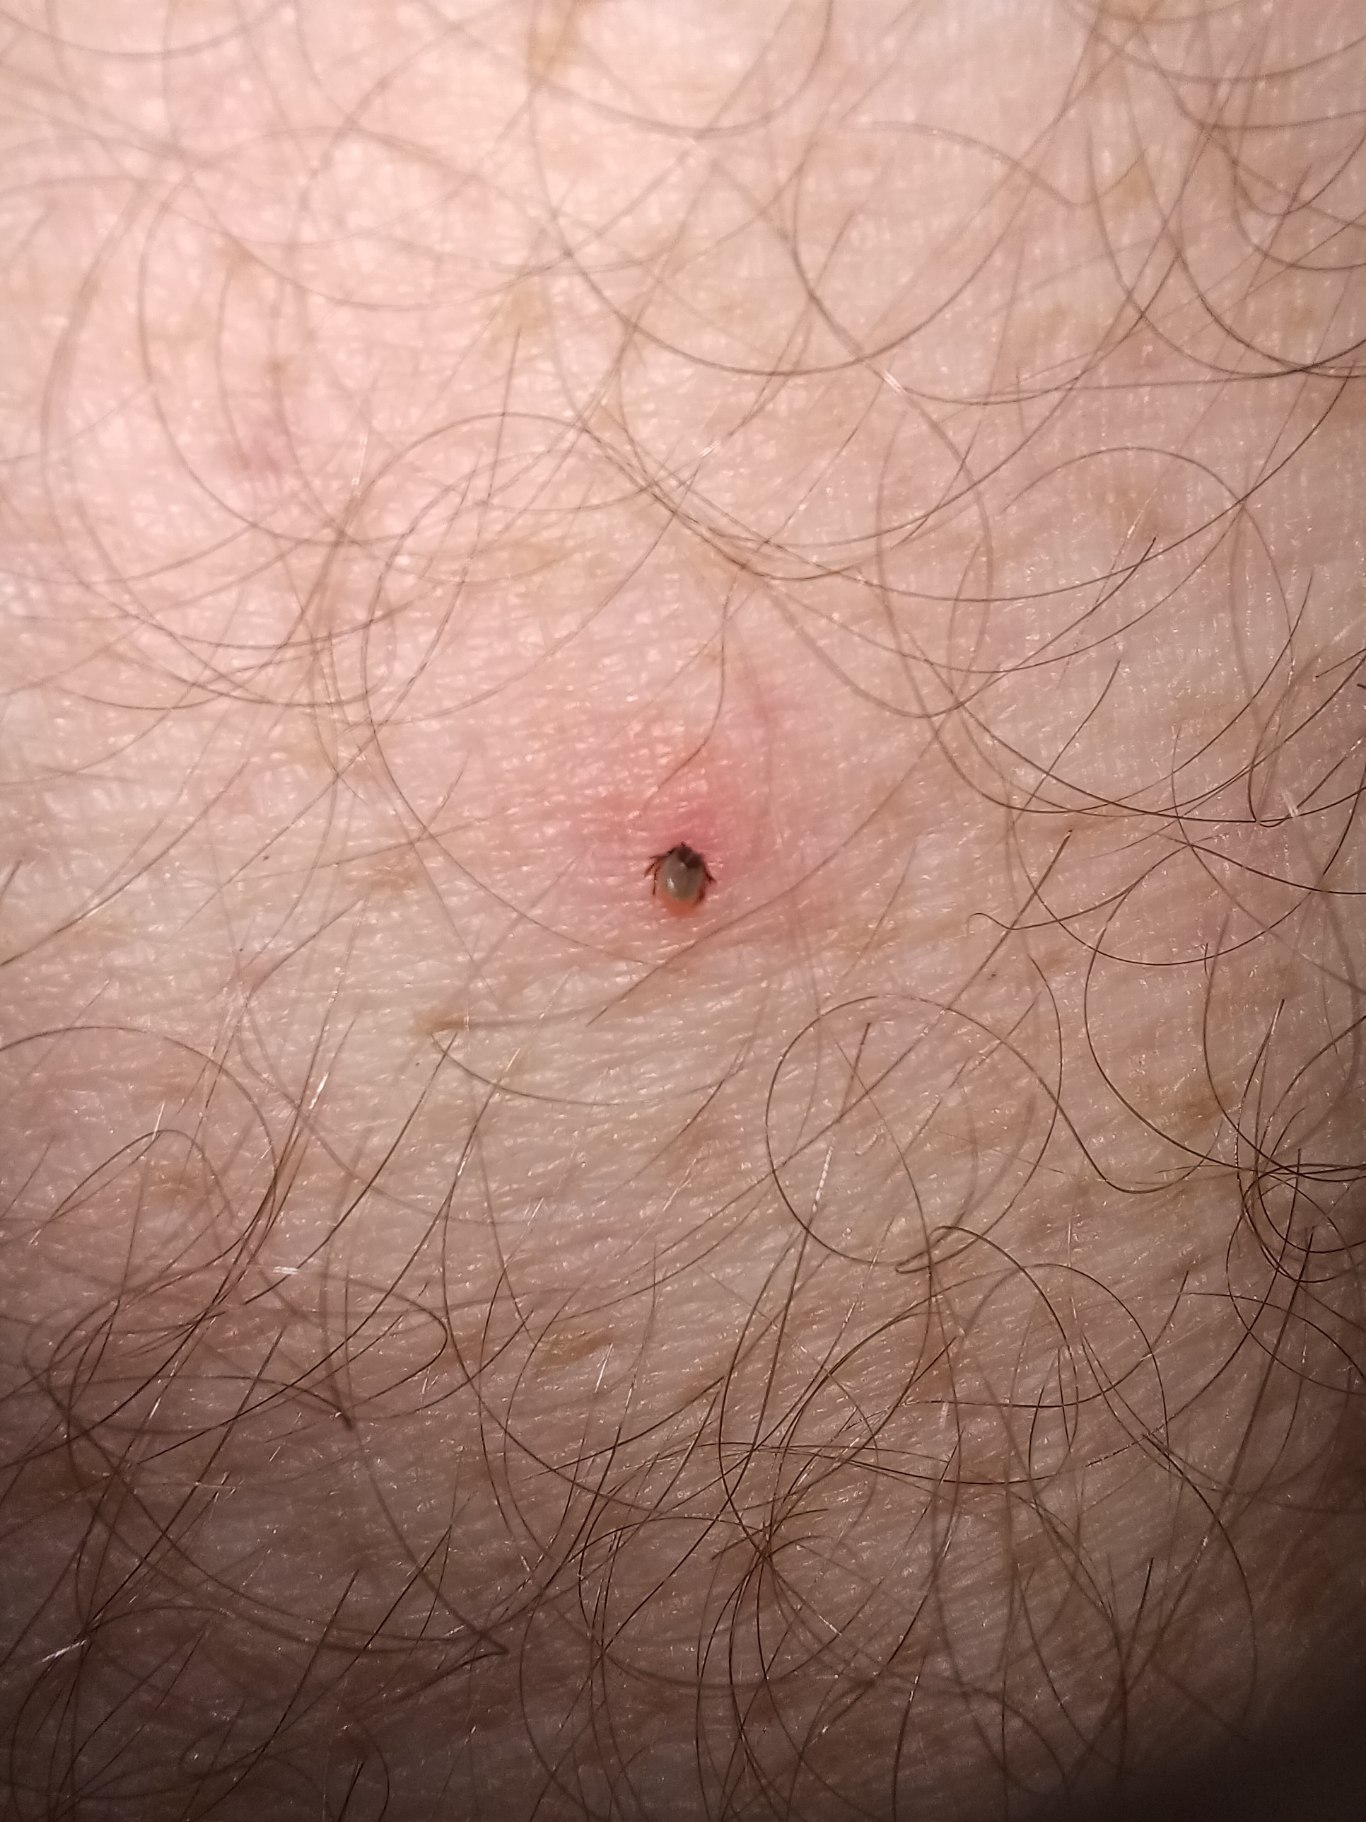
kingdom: Animalia
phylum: Arthropoda
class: Arachnida
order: Ixodida
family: Ixodidae
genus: Ixodes
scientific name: Ixodes ricinus
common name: Skovflåt
